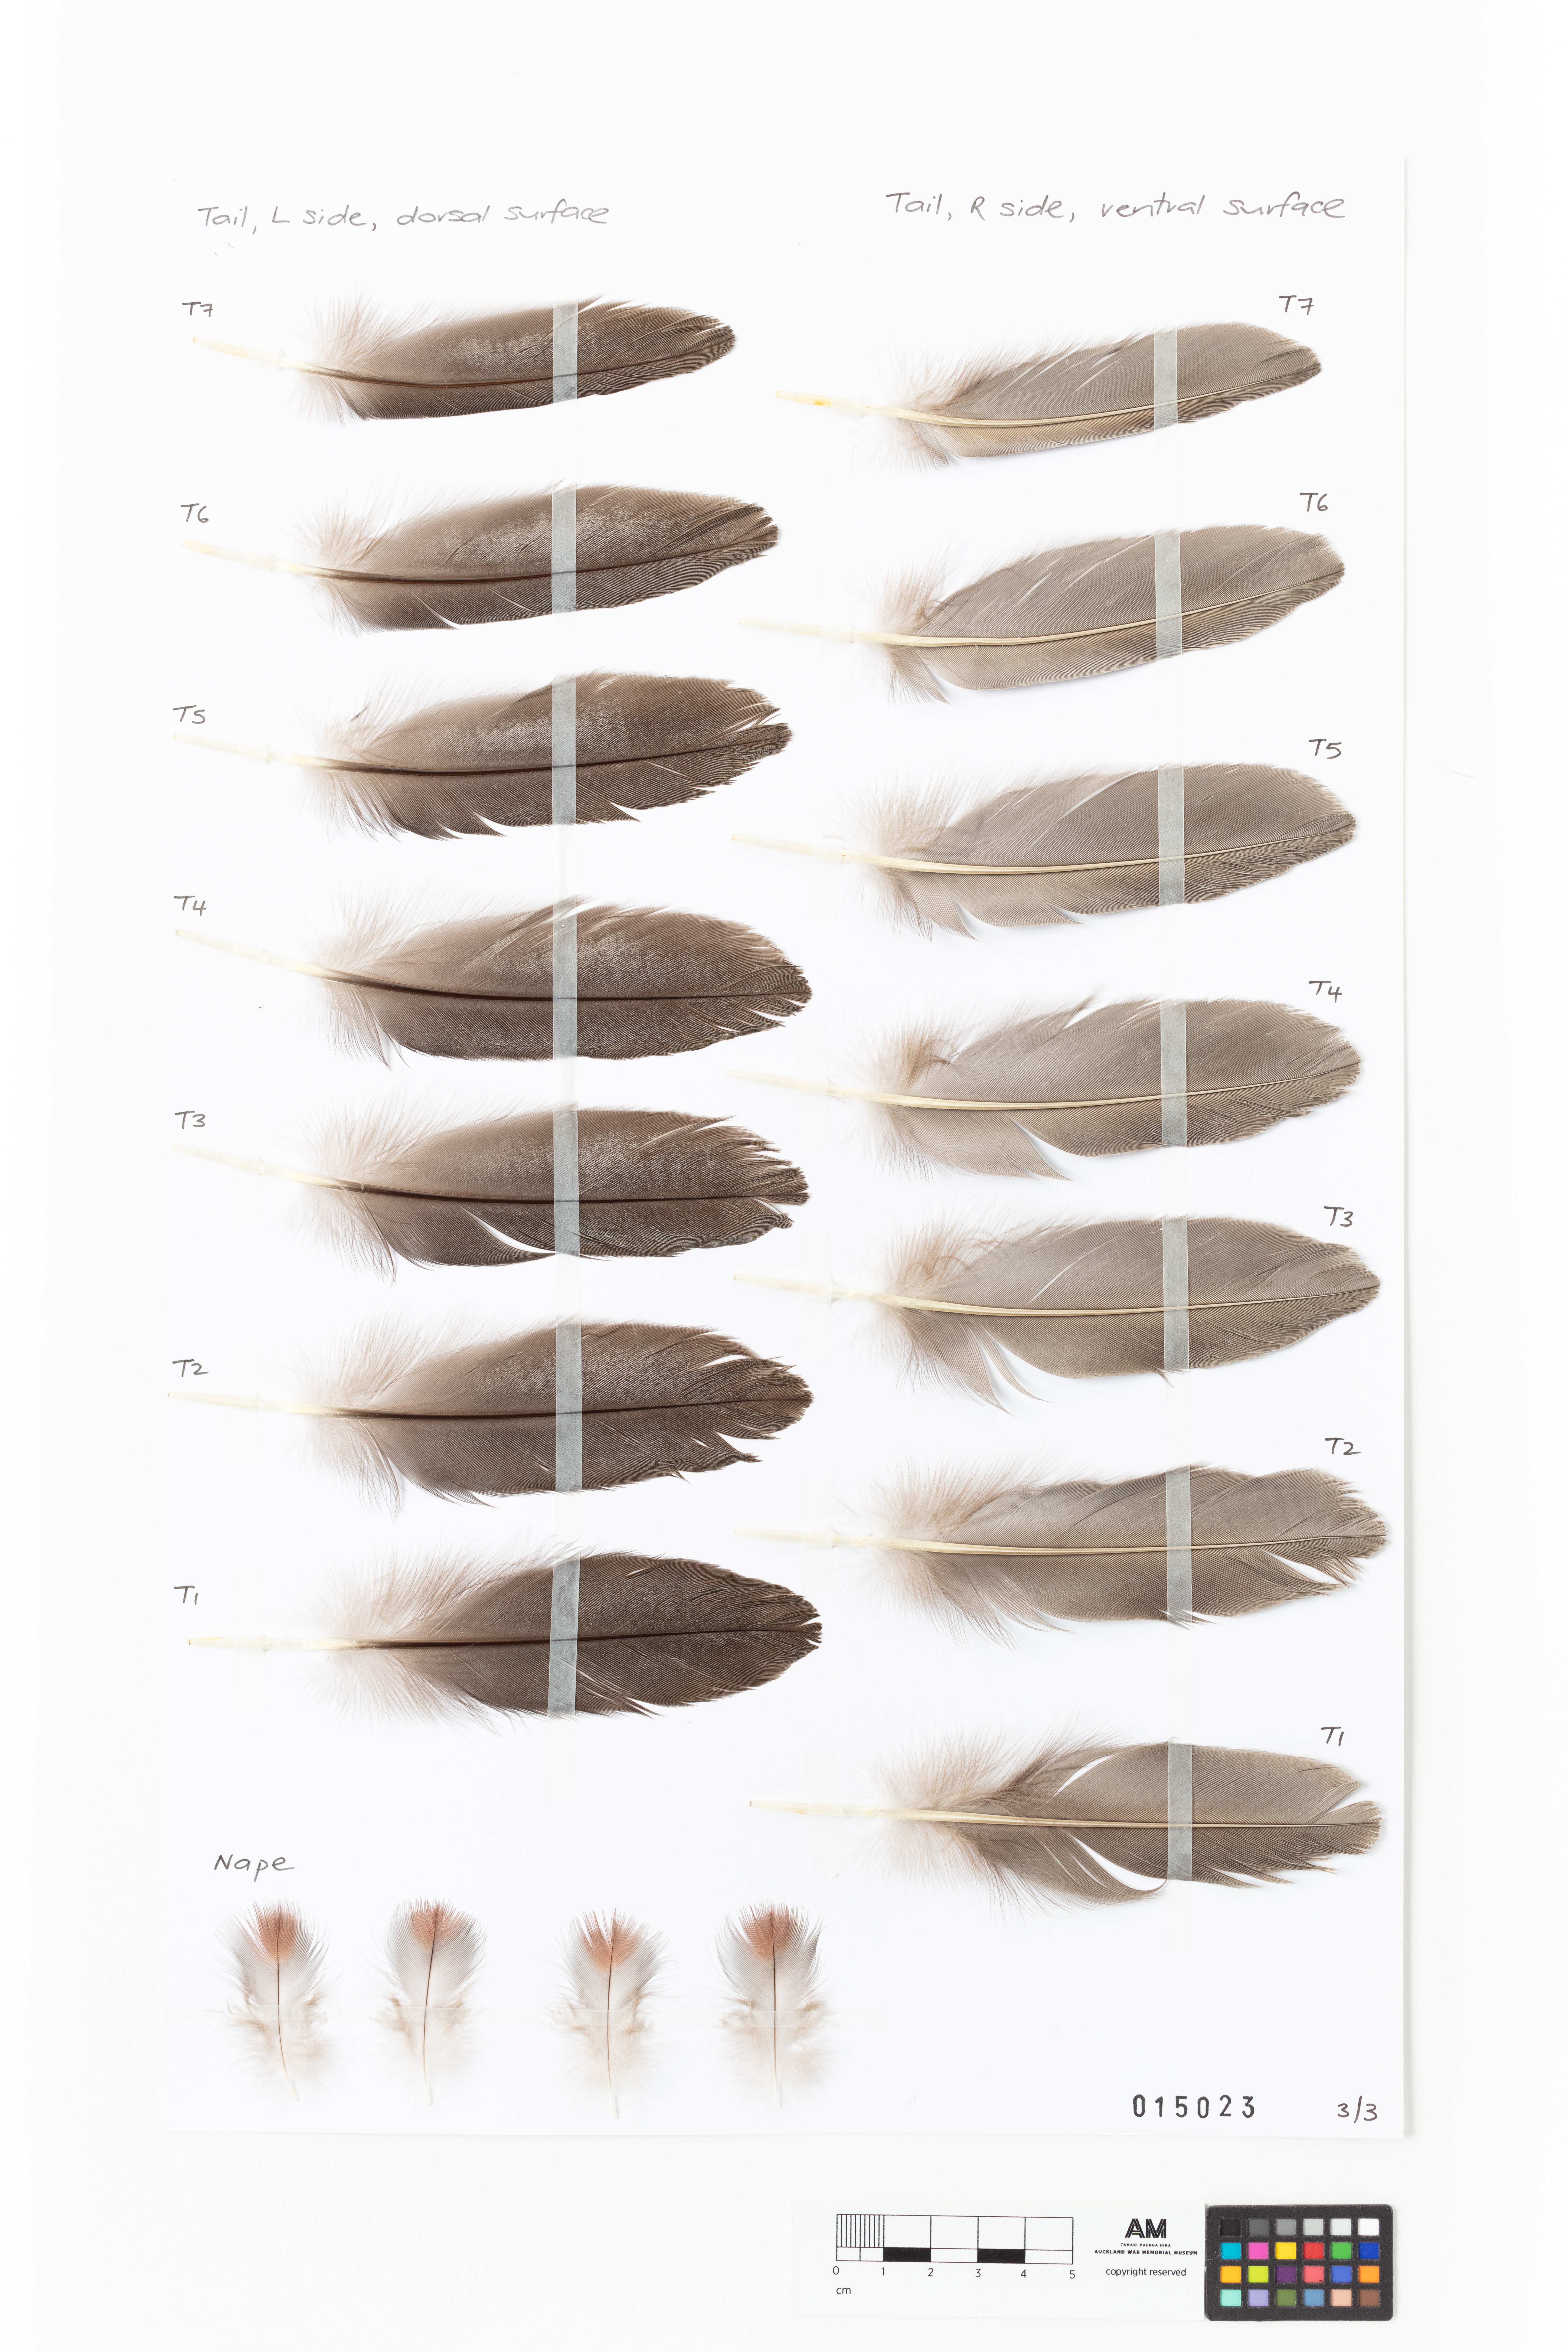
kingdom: Animalia
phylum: Chordata
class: Aves
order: Anseriformes
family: Anatidae
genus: Hymenolaimus
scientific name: Hymenolaimus malacorhynchos
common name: Blue duck
